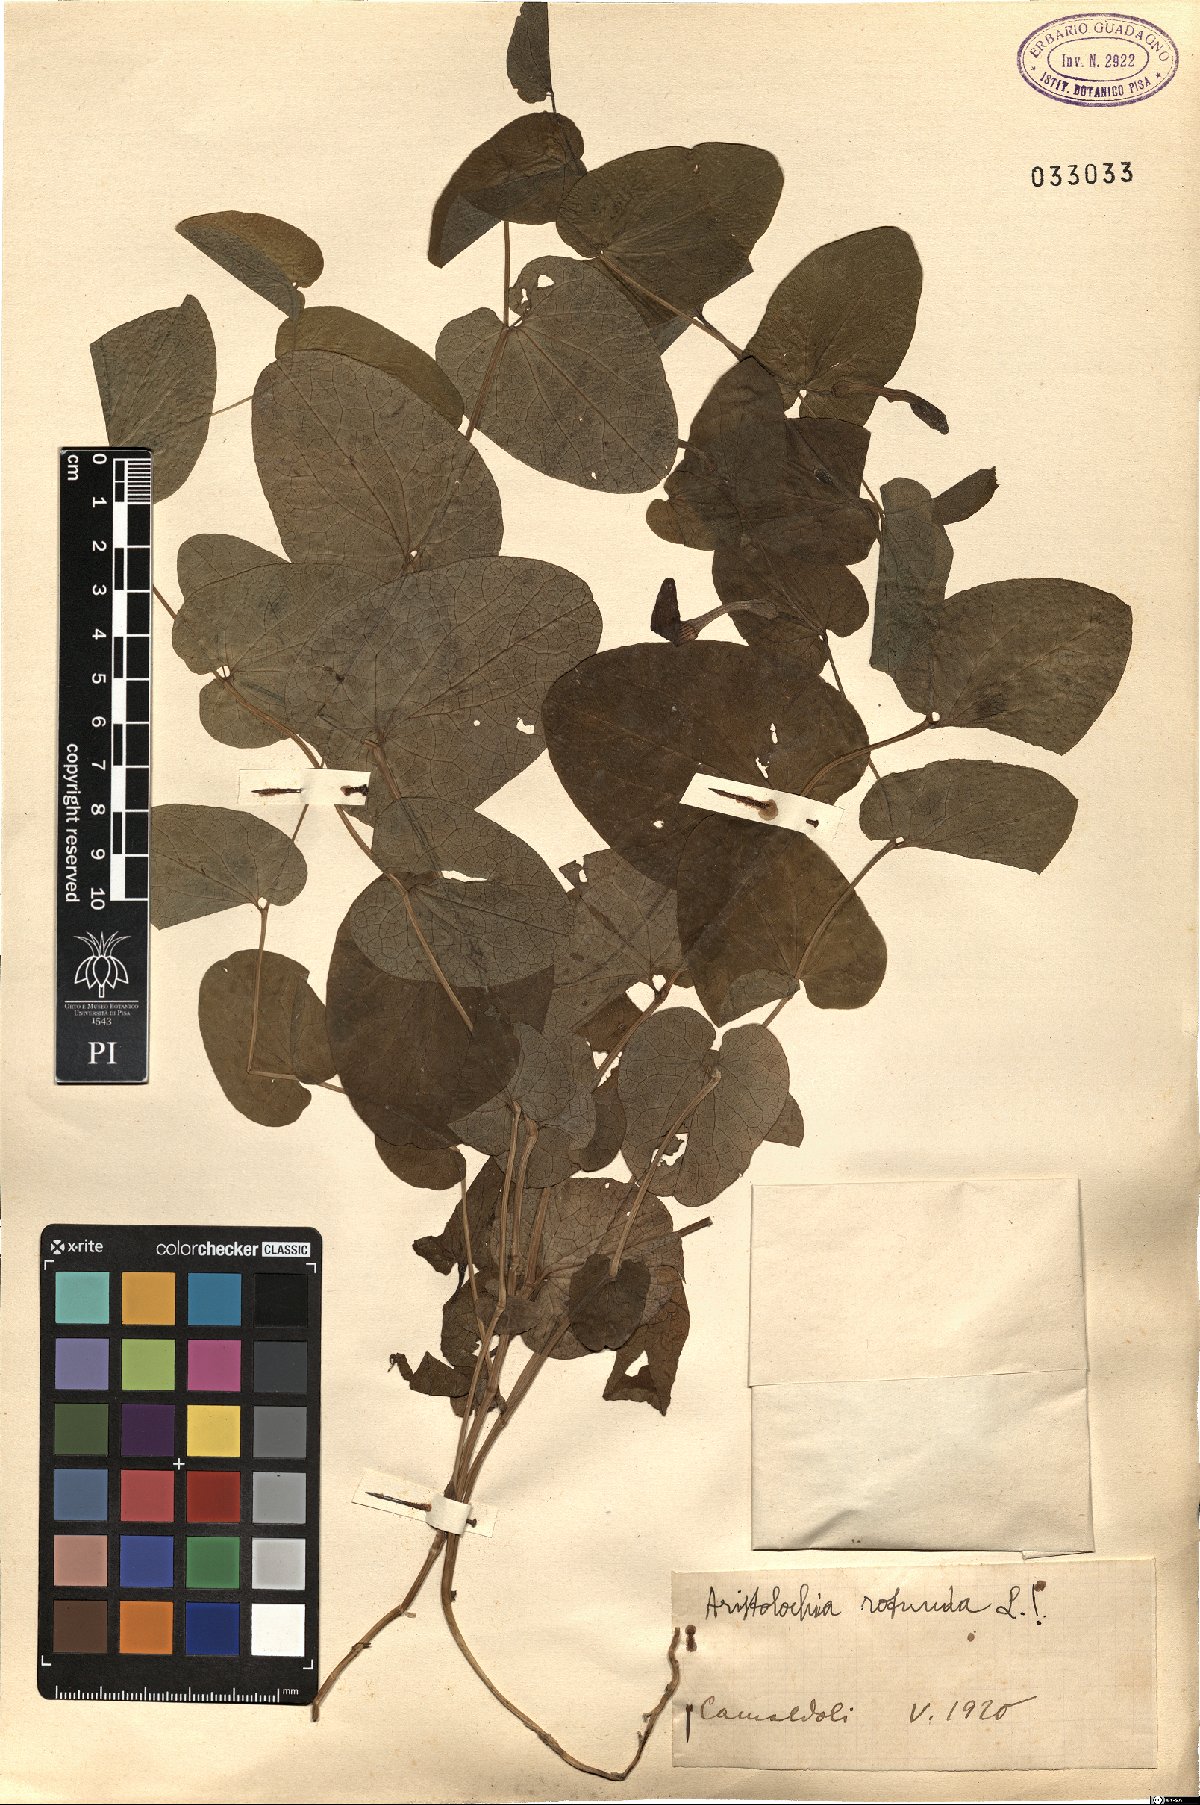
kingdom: Plantae
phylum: Tracheophyta
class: Magnoliopsida
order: Piperales
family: Aristolochiaceae
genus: Aristolochia
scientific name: Aristolochia rotunda
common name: Smearwort
